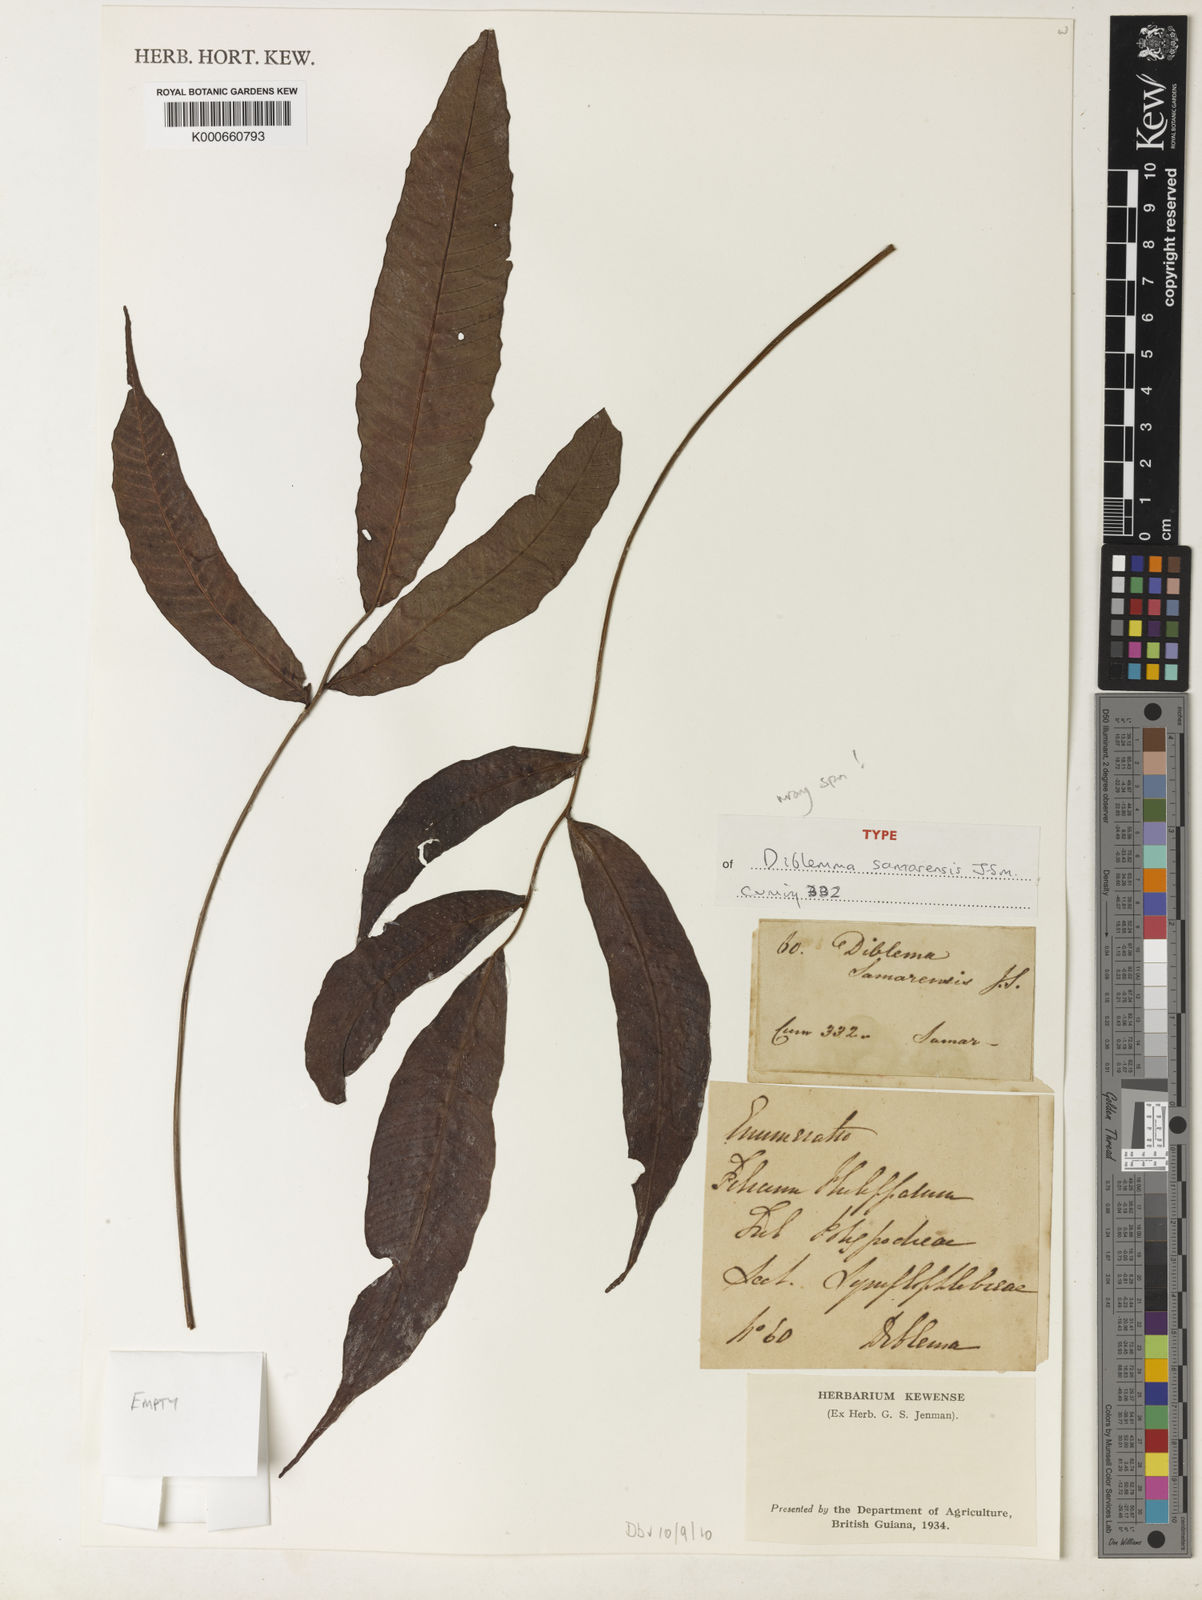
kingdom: Plantae
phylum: Tracheophyta
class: Polypodiopsida
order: Polypodiales
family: Polypodiaceae
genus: Microsorum
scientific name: Microsorum samarense
